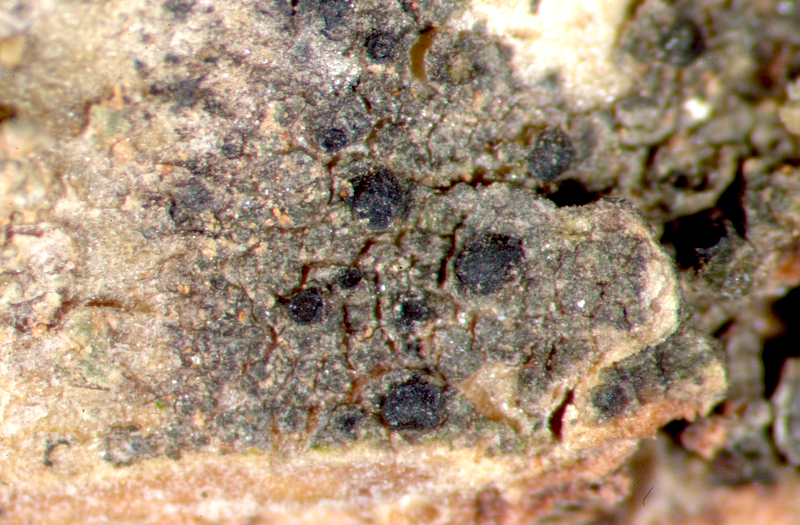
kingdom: Fungi
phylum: Ascomycota
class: Arthoniomycetes
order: Arthoniales
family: Arthoniaceae
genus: Arthonia
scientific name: Arthonia
